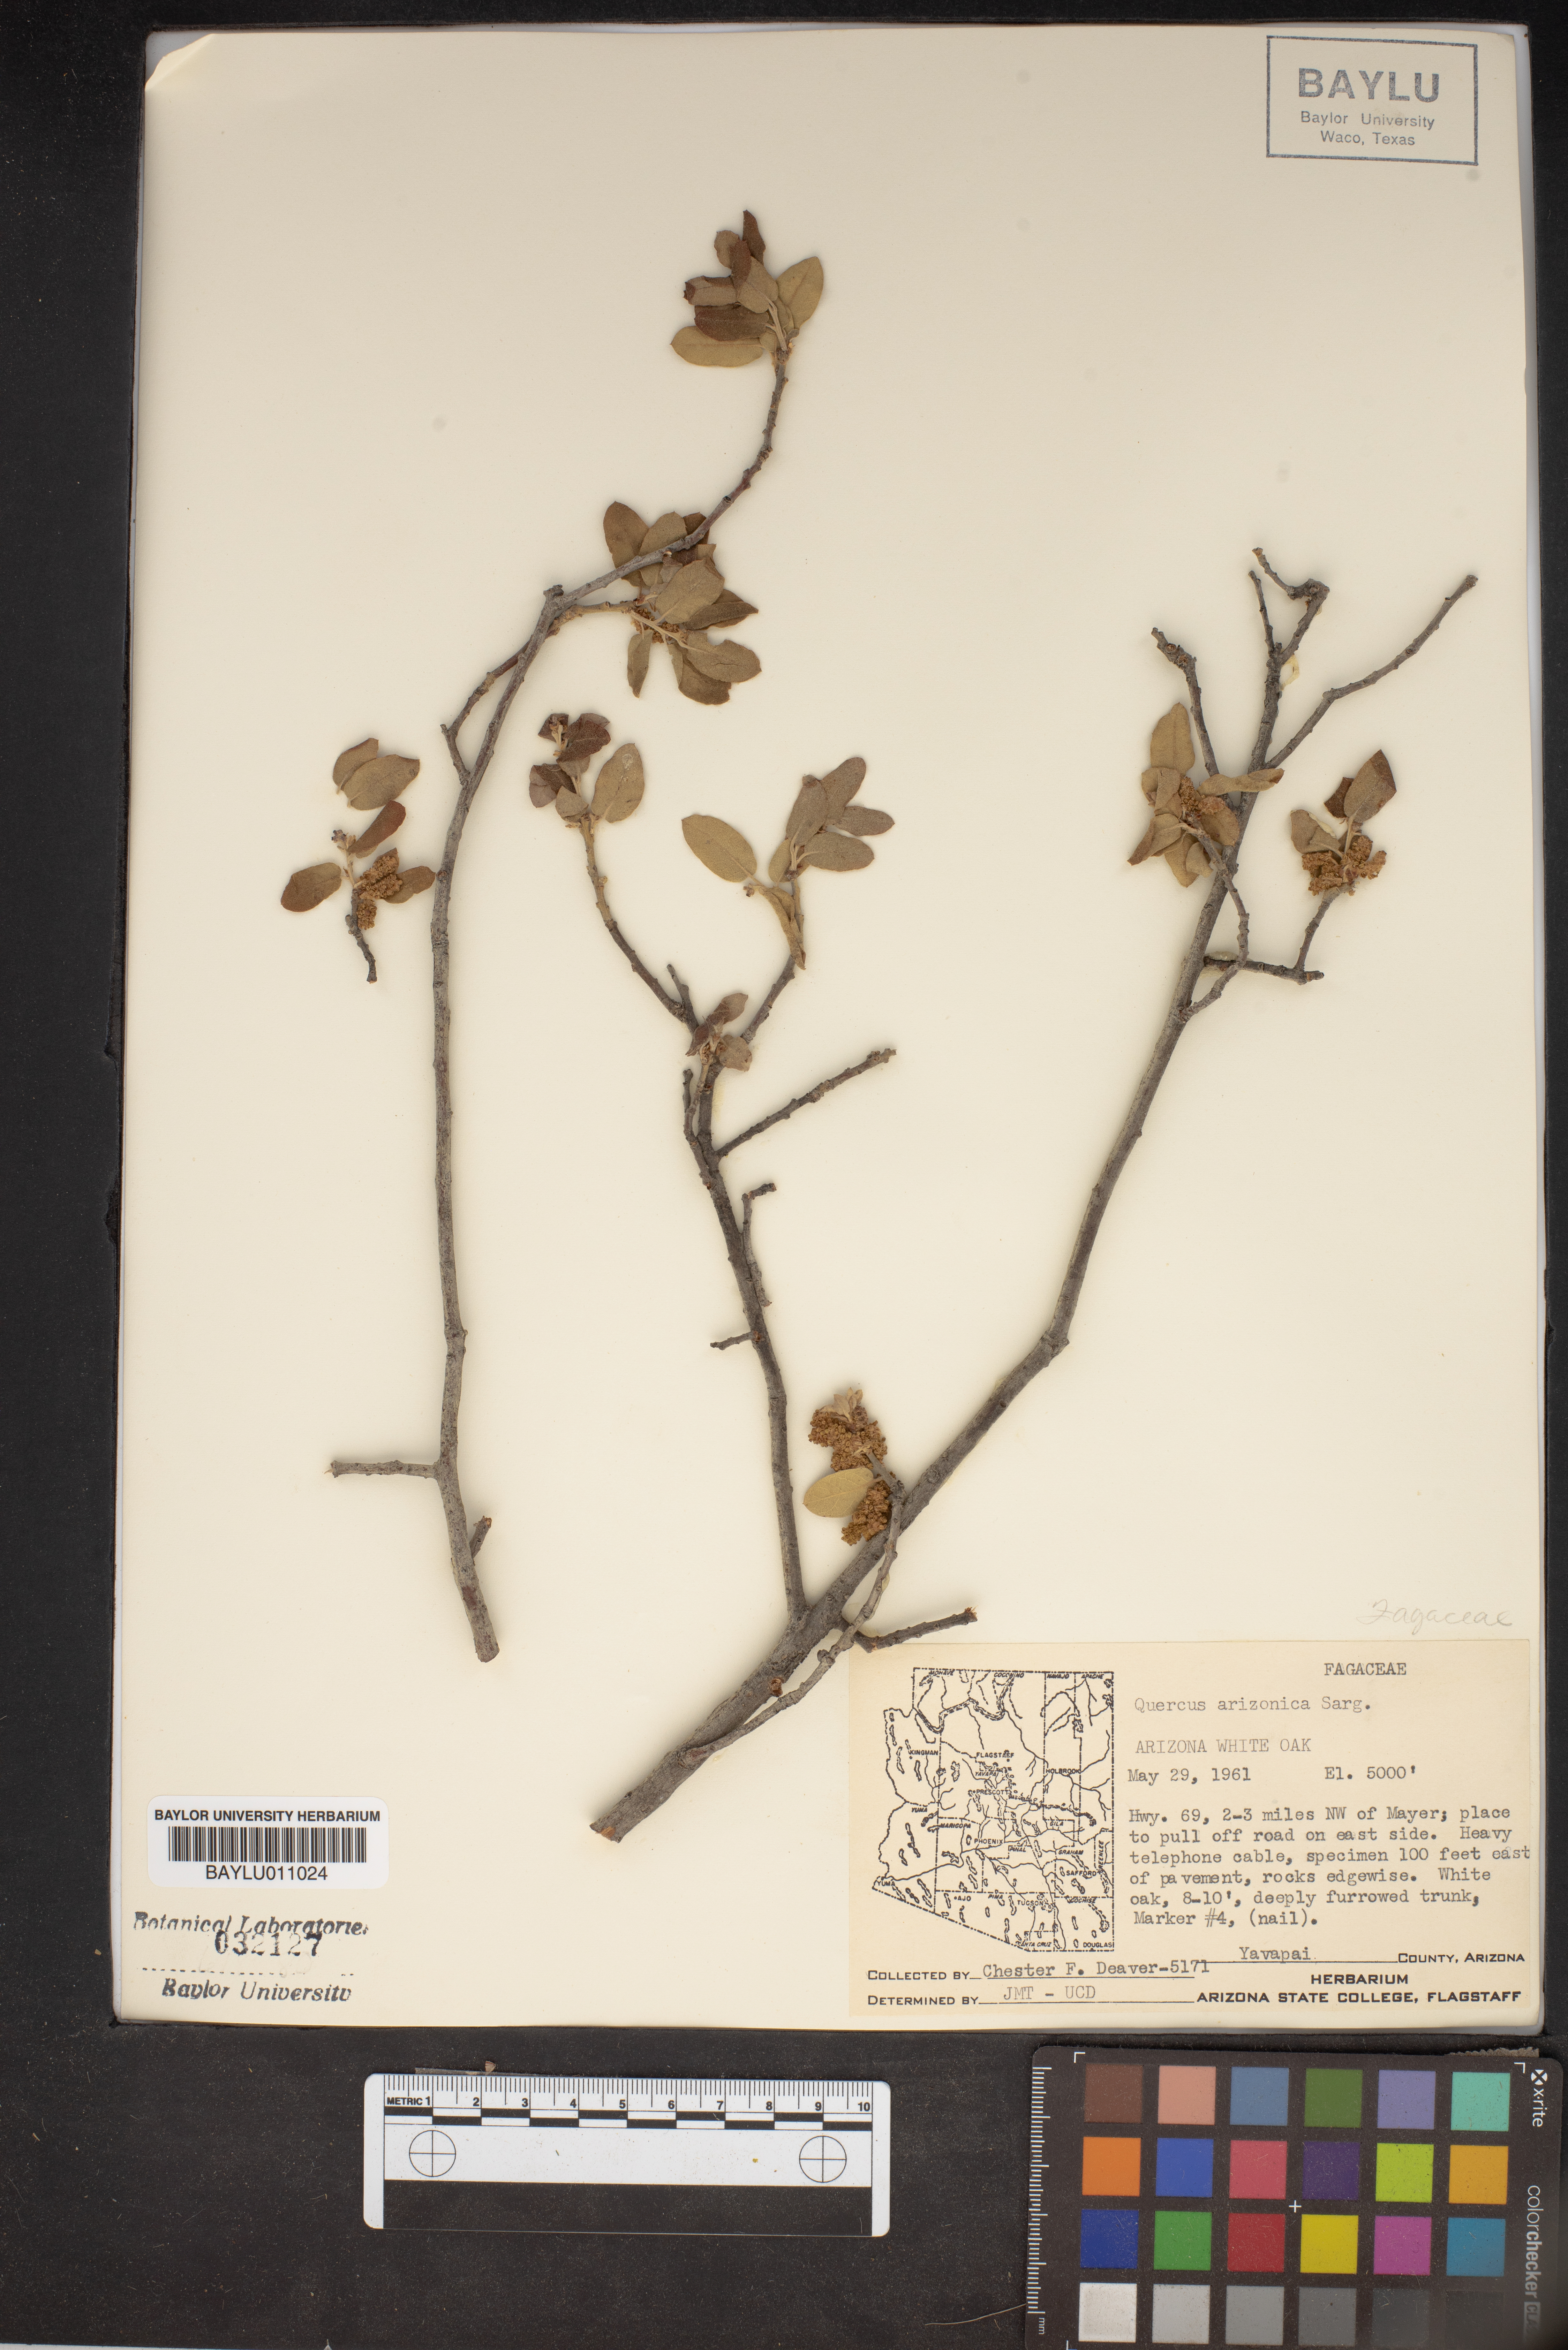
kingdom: Plantae
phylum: Tracheophyta
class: Magnoliopsida
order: Fagales
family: Fagaceae
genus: Quercus
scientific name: Quercus arizonica
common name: Arizona white oak
